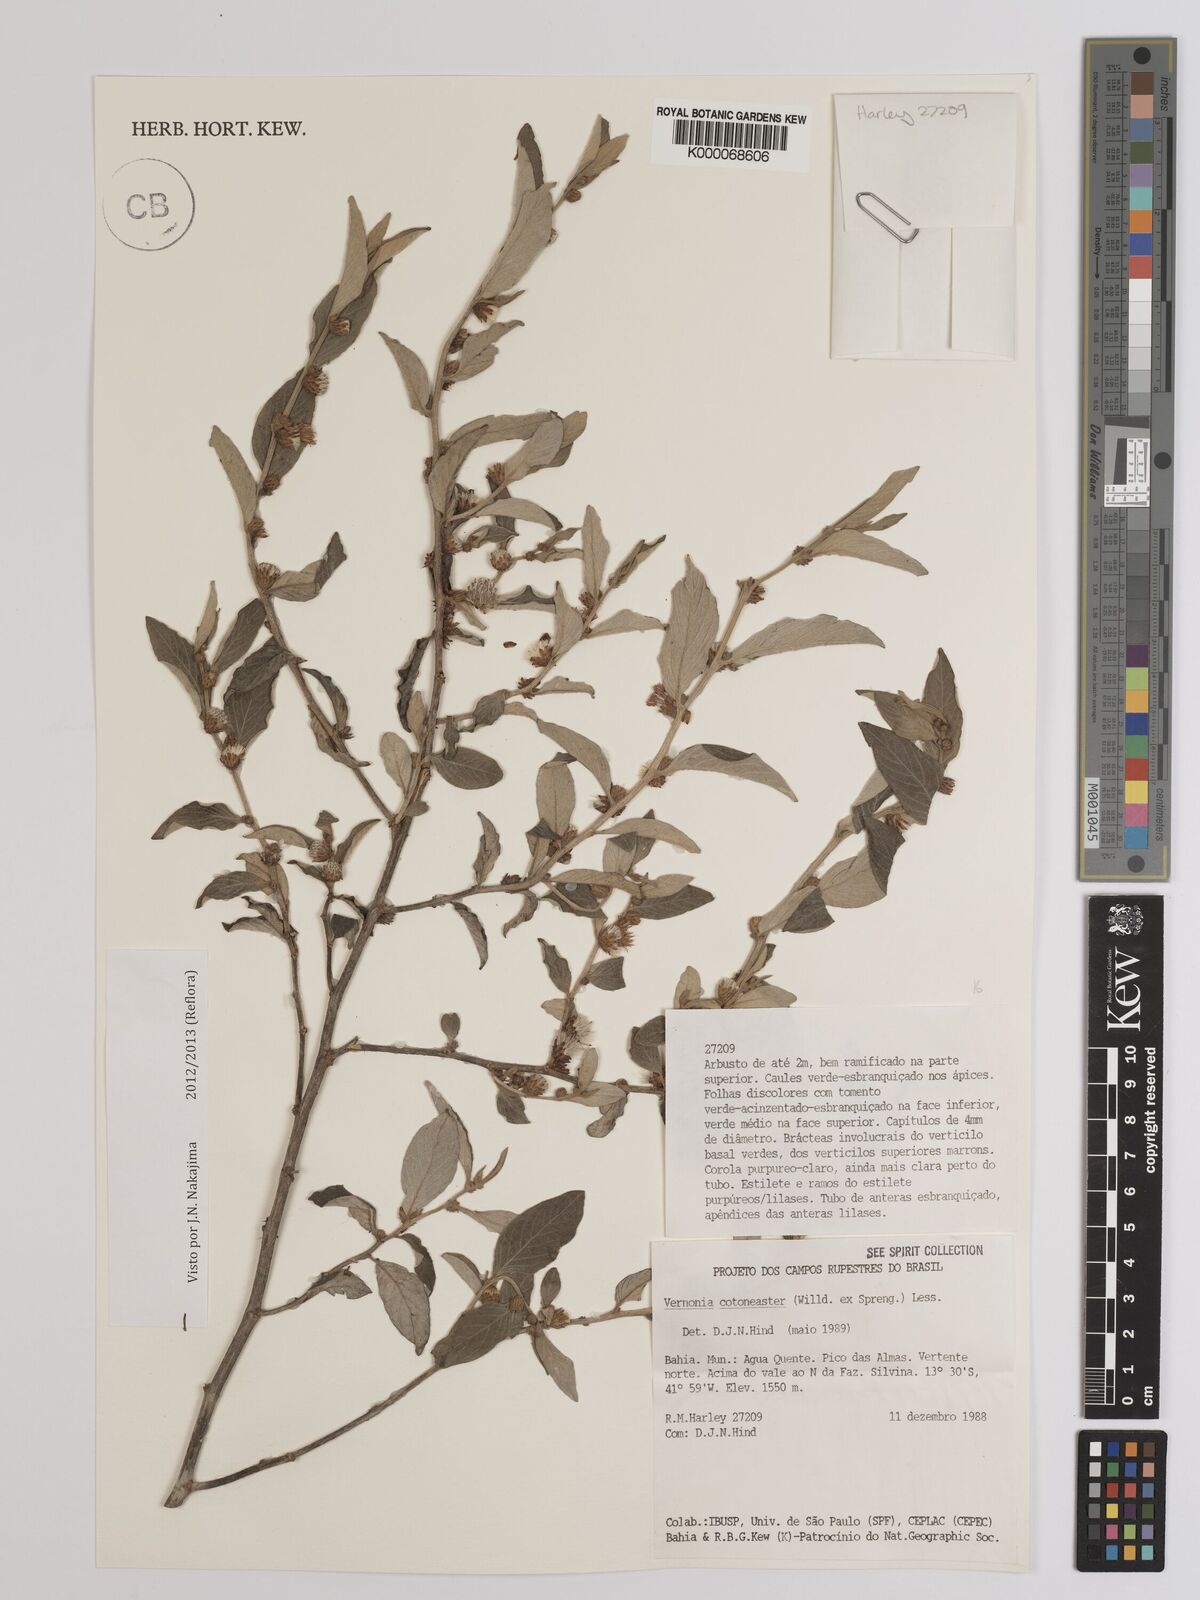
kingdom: Plantae
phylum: Tracheophyta
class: Magnoliopsida
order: Asterales
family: Asteraceae
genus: Lepidaploa
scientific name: Lepidaploa cotoneaster
